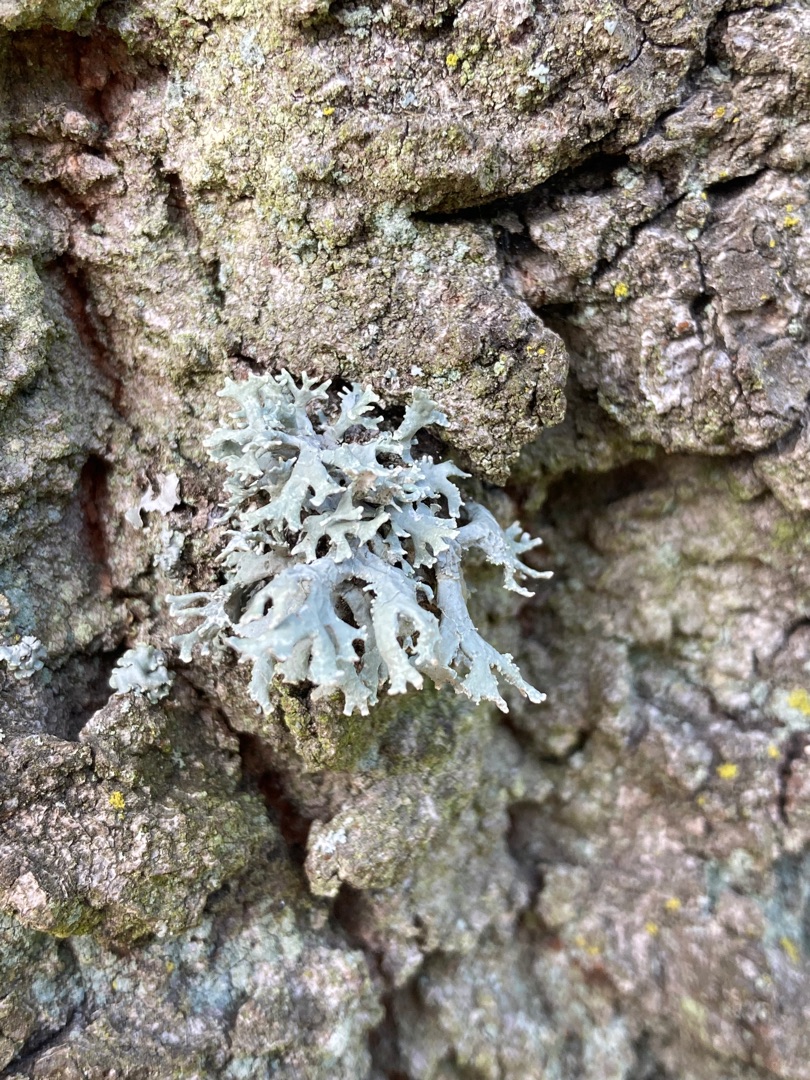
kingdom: Fungi
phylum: Ascomycota
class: Lecanoromycetes
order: Lecanorales
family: Parmeliaceae
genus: Evernia
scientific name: Evernia prunastri
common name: Almindelig slåenlav
